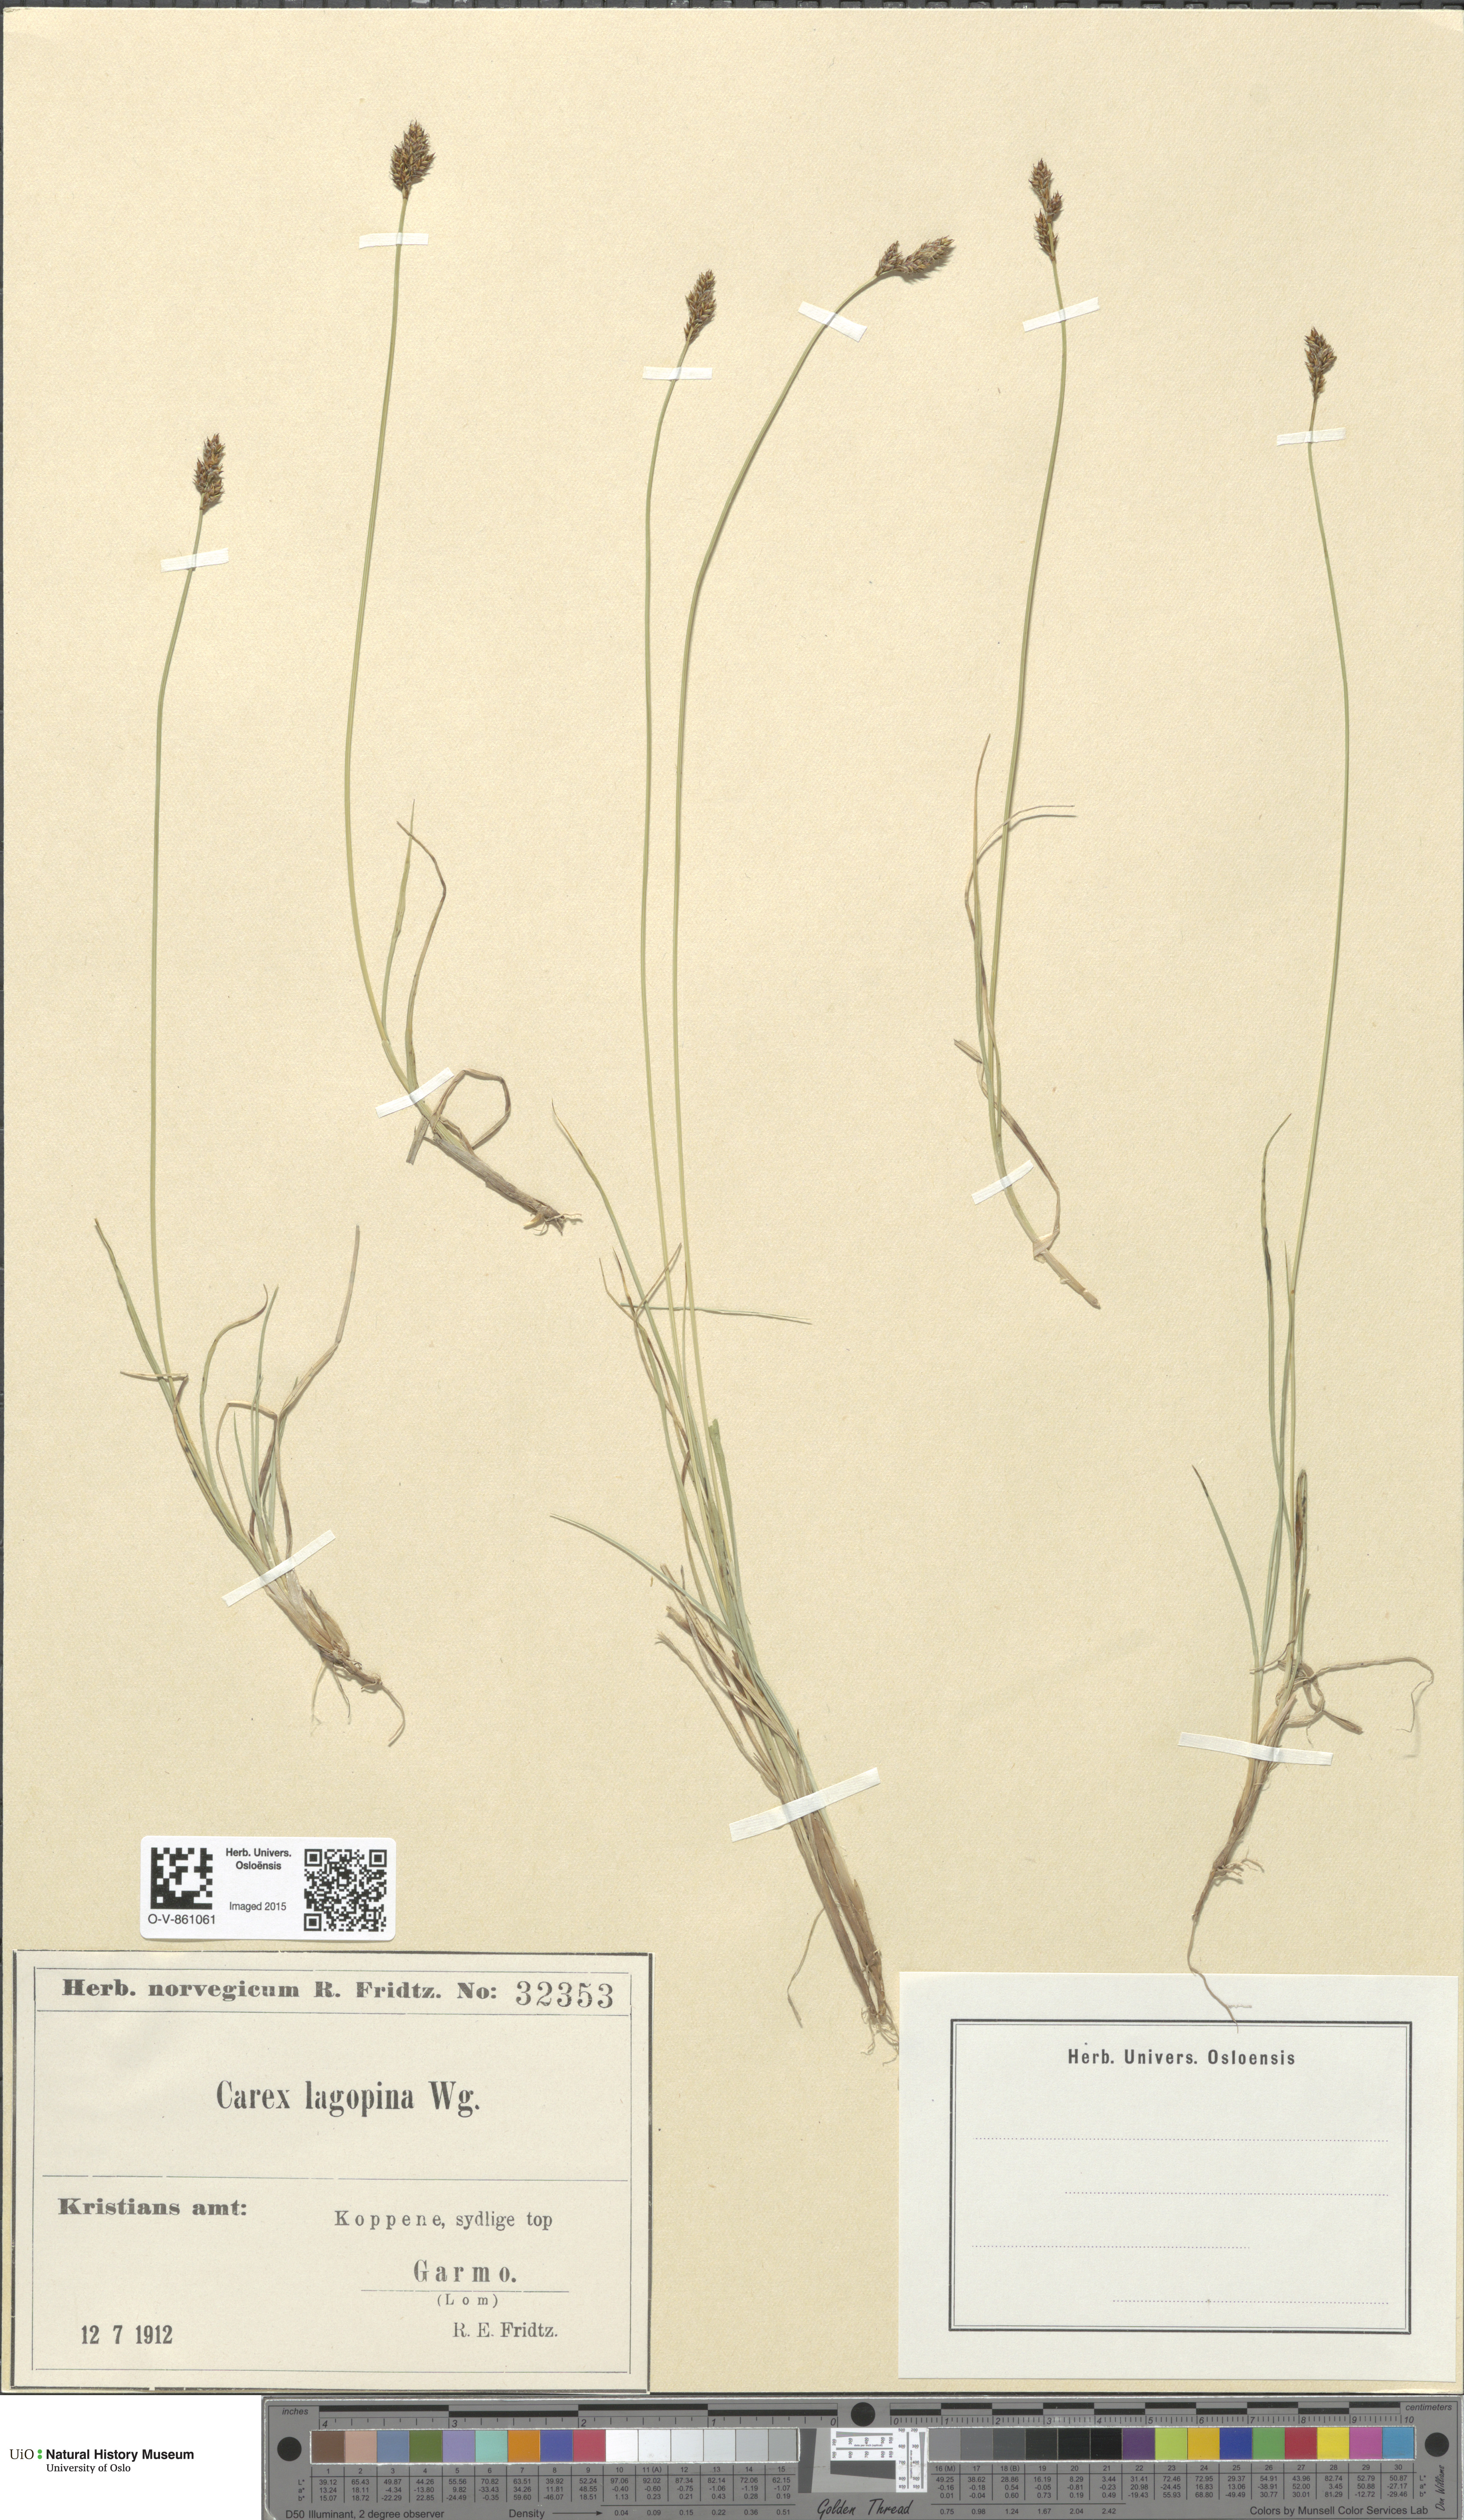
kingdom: Plantae
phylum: Tracheophyta
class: Liliopsida
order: Poales
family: Cyperaceae
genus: Carex
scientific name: Carex lachenalii
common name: Hare's-foot sedge
